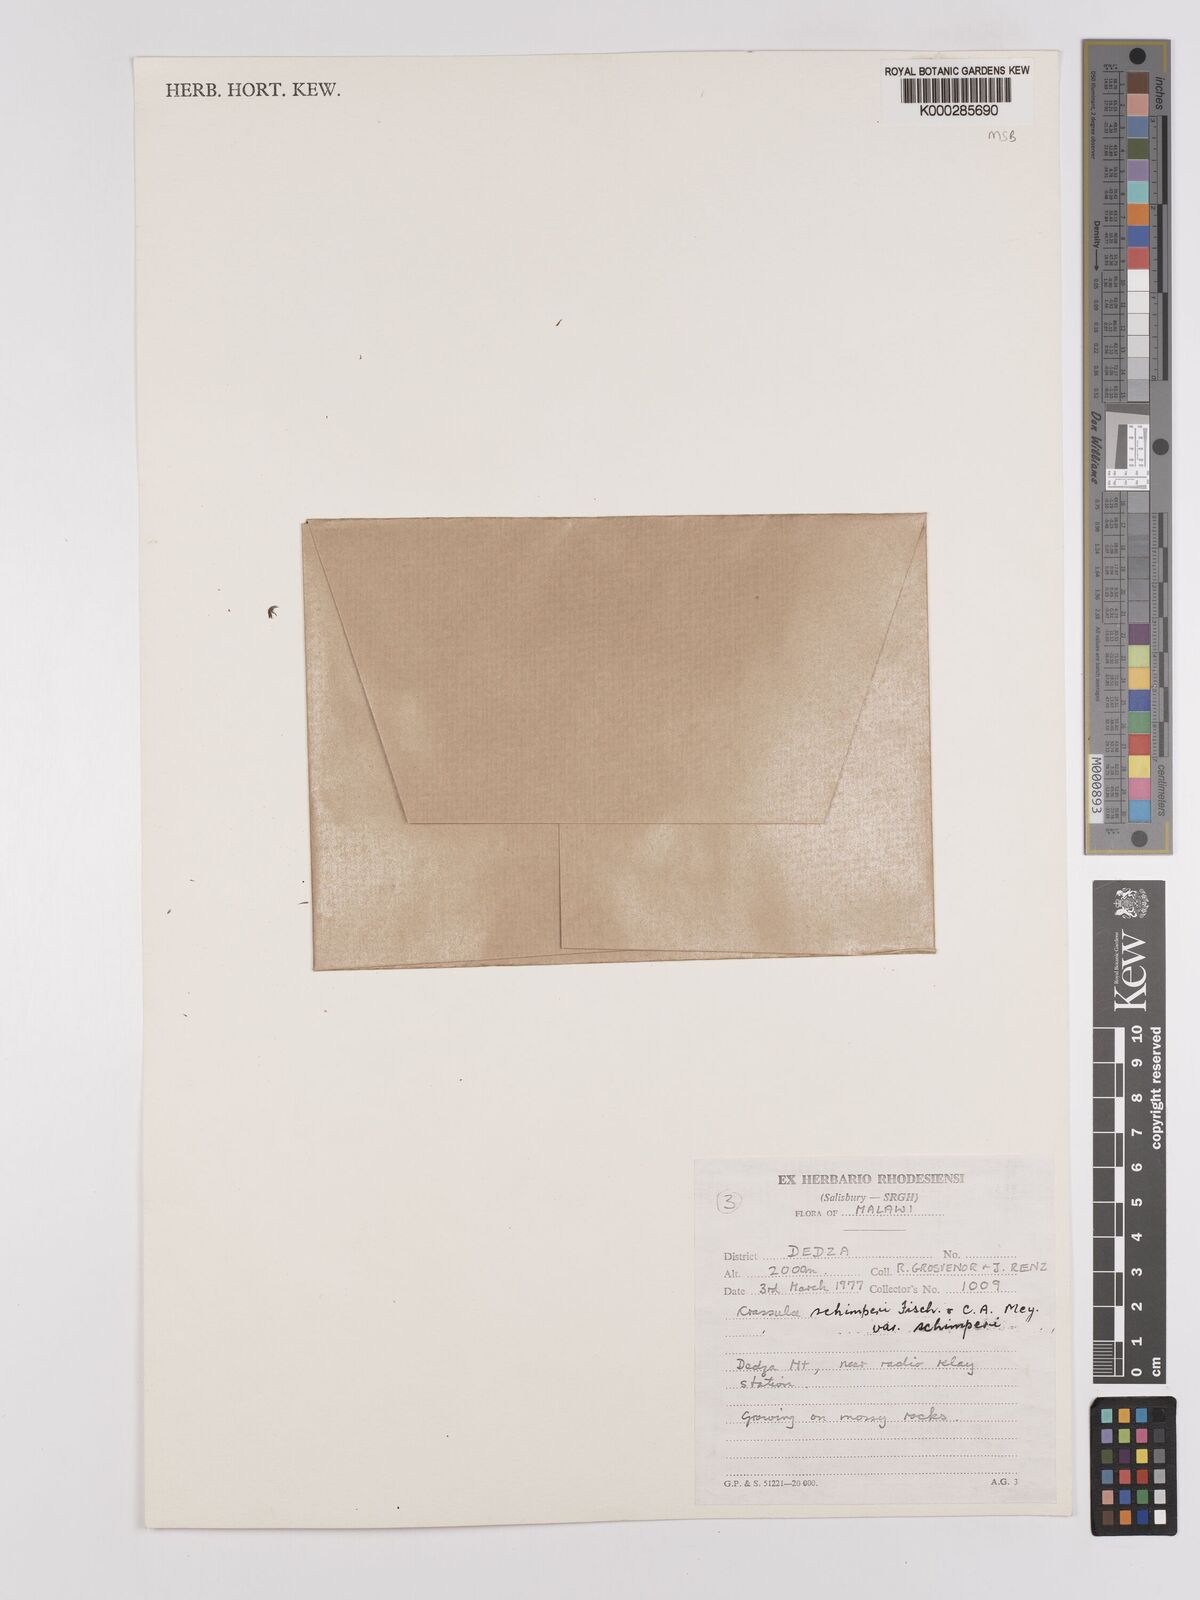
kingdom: Plantae
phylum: Tracheophyta
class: Magnoliopsida
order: Saxifragales
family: Crassulaceae
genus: Crassula
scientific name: Crassula lanceolata
